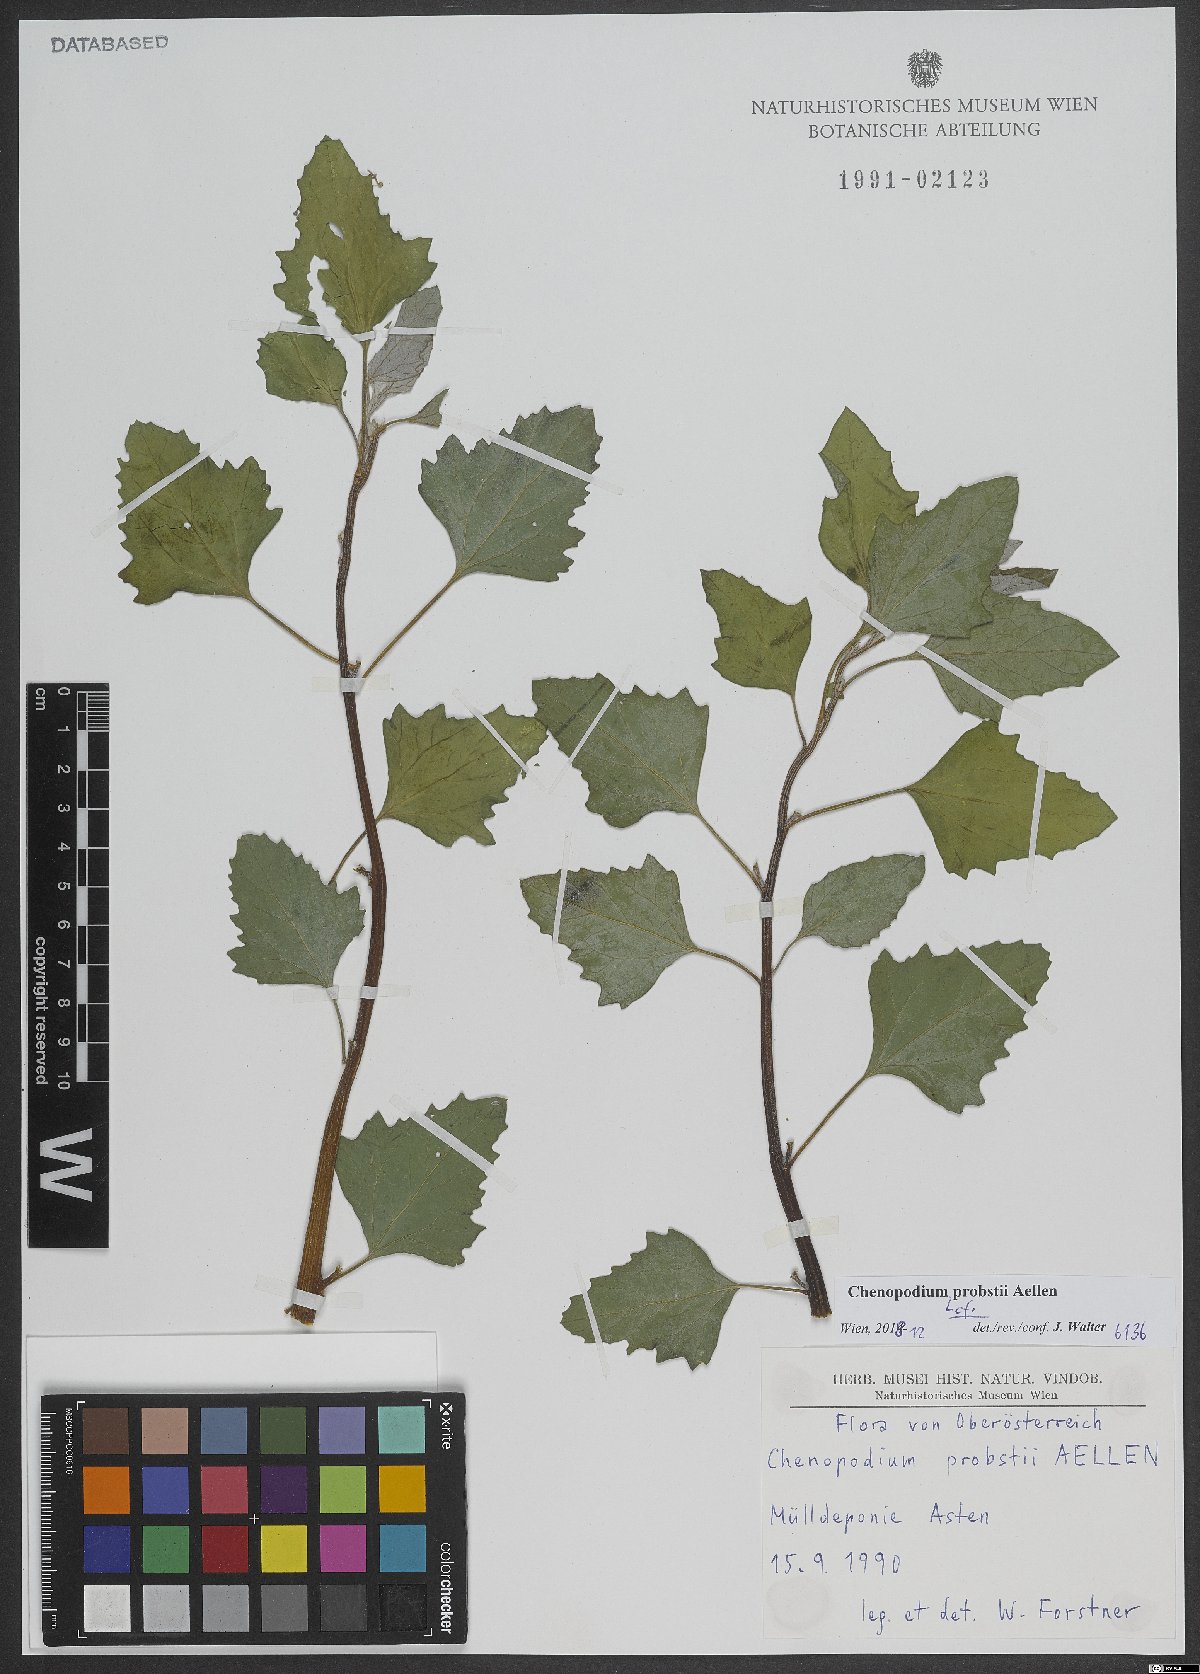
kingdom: Plantae
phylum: Tracheophyta
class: Magnoliopsida
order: Caryophyllales
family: Amaranthaceae
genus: Chenopodium
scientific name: Chenopodium probstii
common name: Probst's goosefoot
